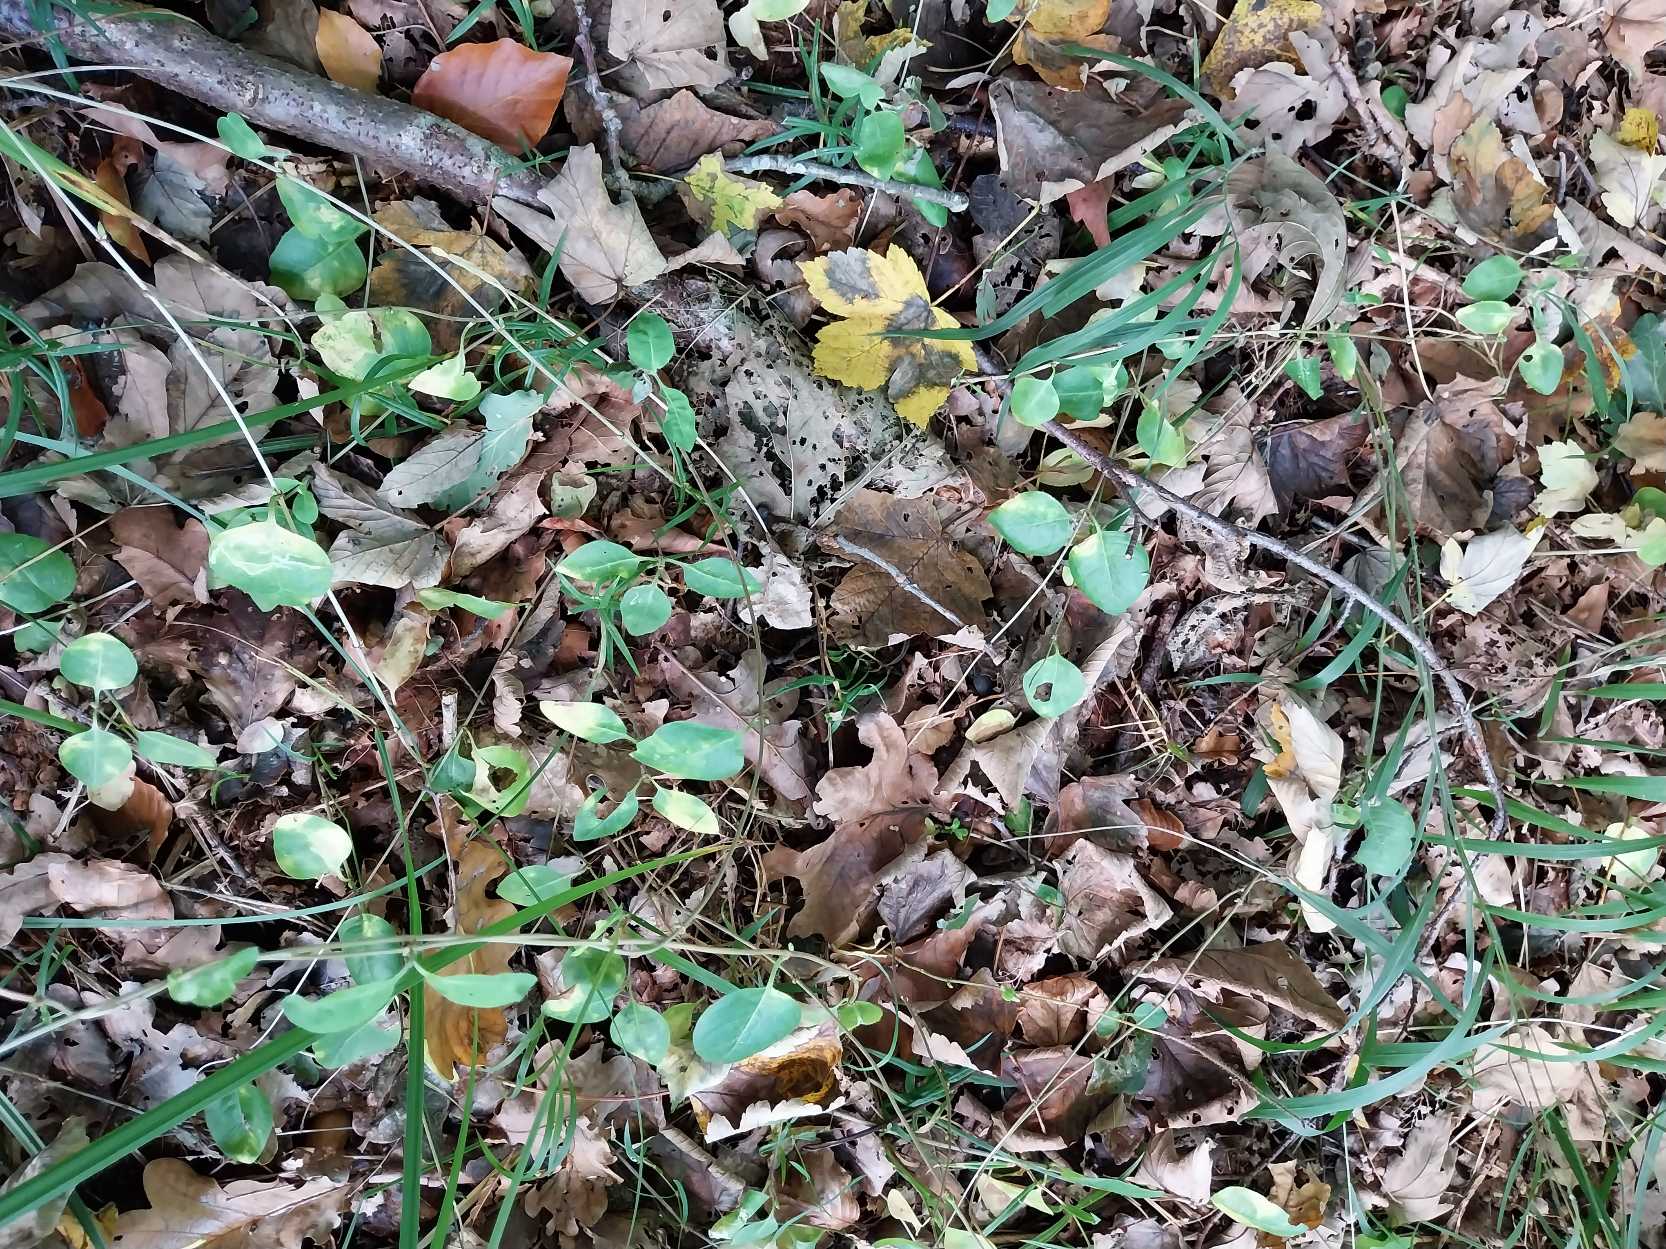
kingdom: Plantae
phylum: Tracheophyta
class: Magnoliopsida
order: Dipsacales
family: Caprifoliaceae
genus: Lonicera
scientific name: Lonicera periclymenum
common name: Almindelig gedeblad
